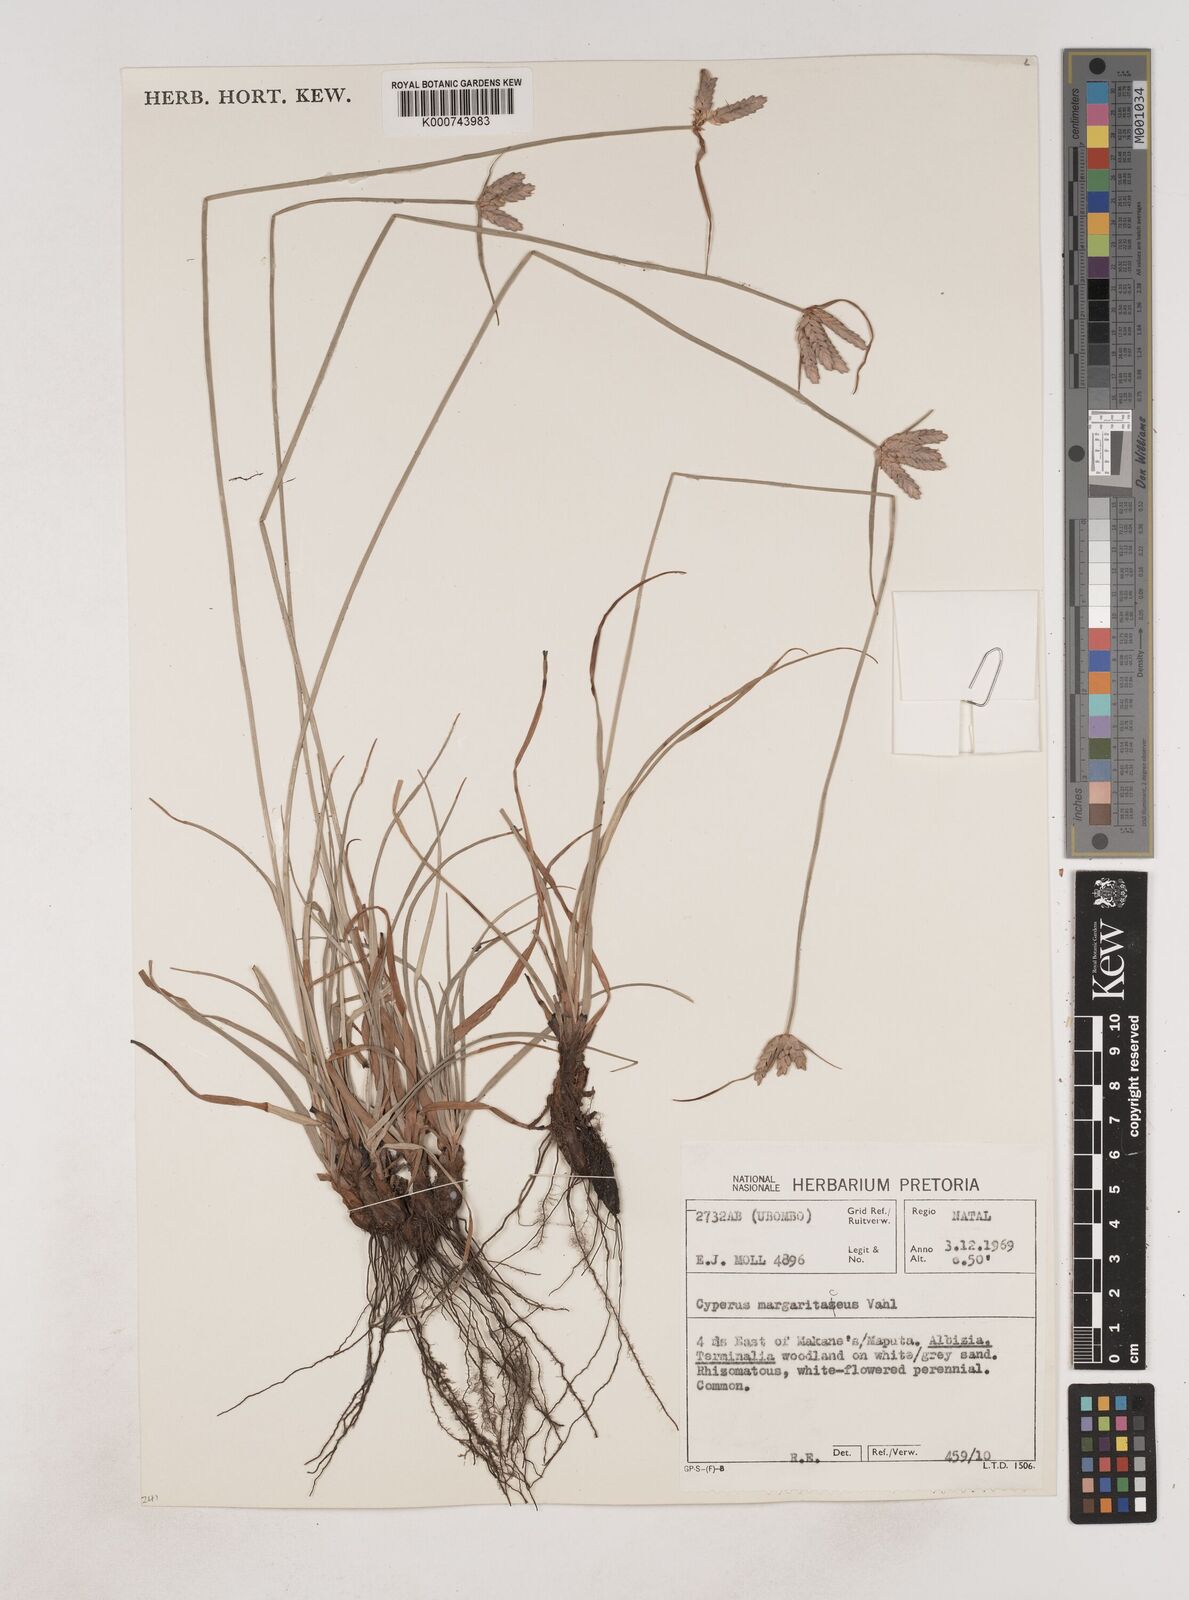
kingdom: Plantae
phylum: Tracheophyta
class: Liliopsida
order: Poales
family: Cyperaceae
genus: Cyperus
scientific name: Cyperus margaritaceus
